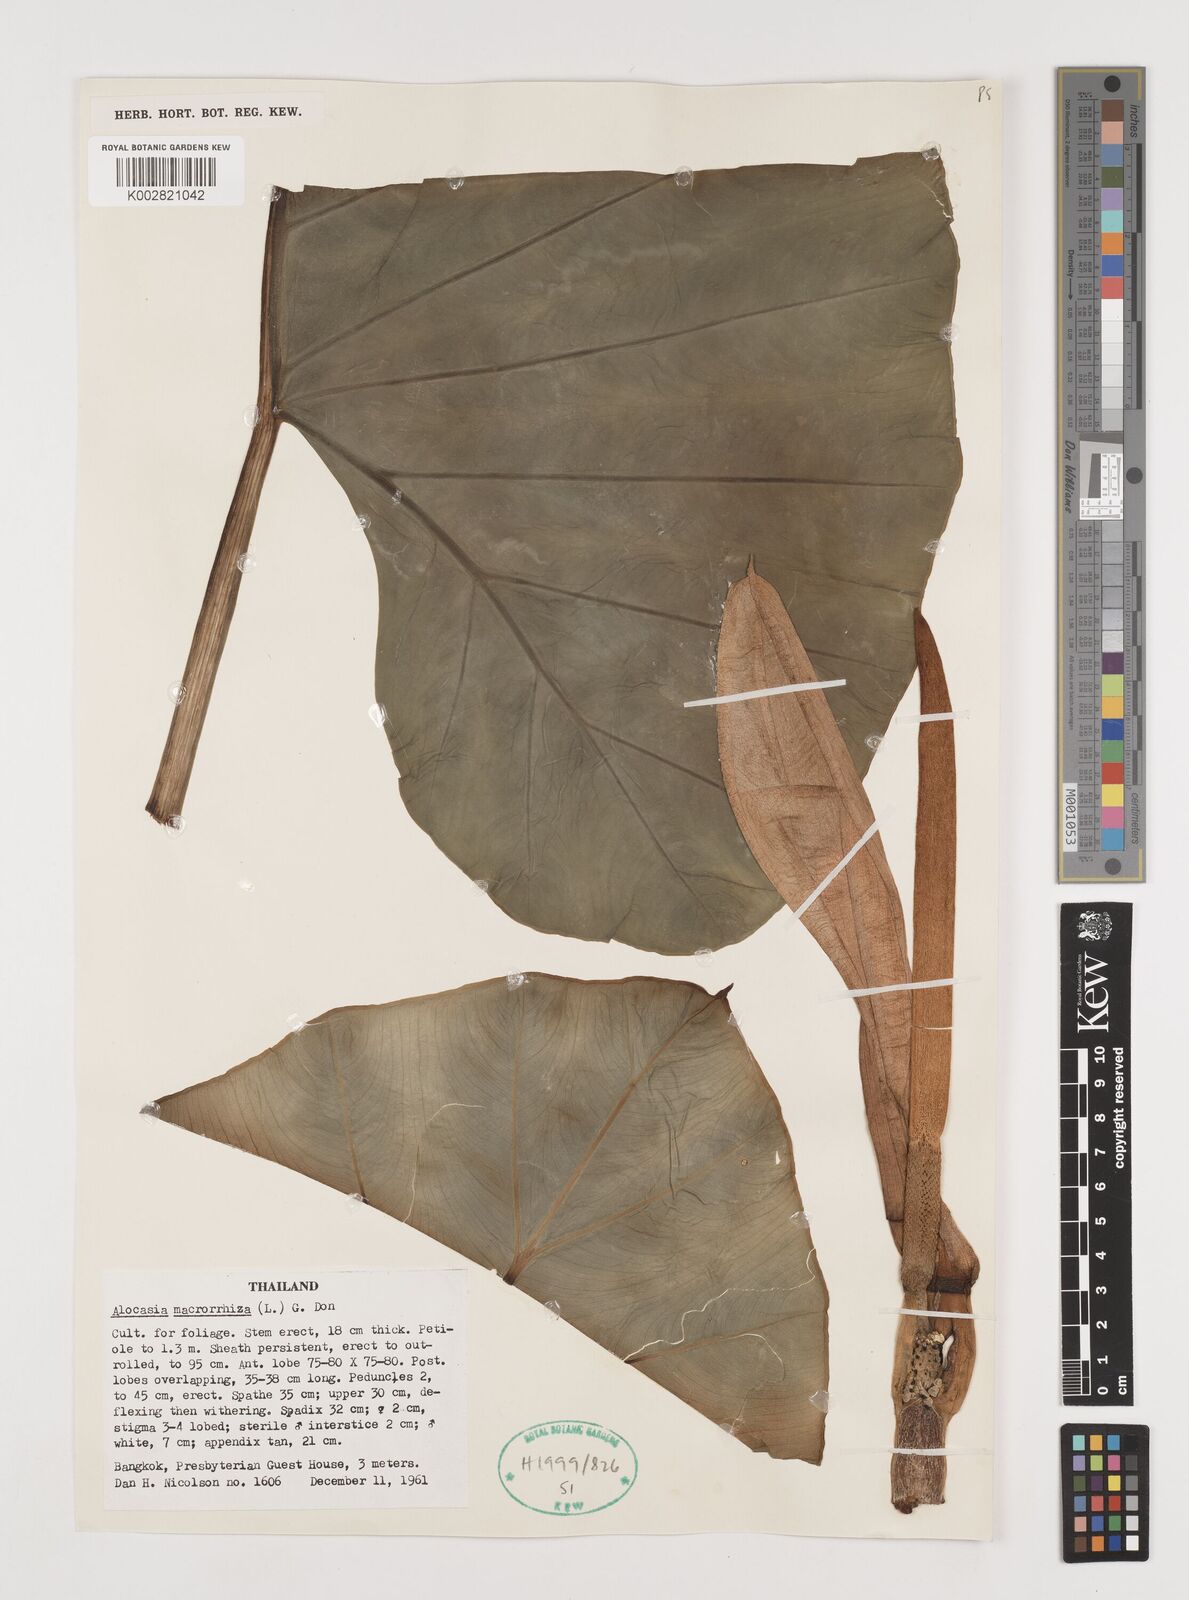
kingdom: Plantae
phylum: Tracheophyta
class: Liliopsida
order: Alismatales
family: Araceae
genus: Alocasia
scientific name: Alocasia macrorrhizos
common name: Giant taro
